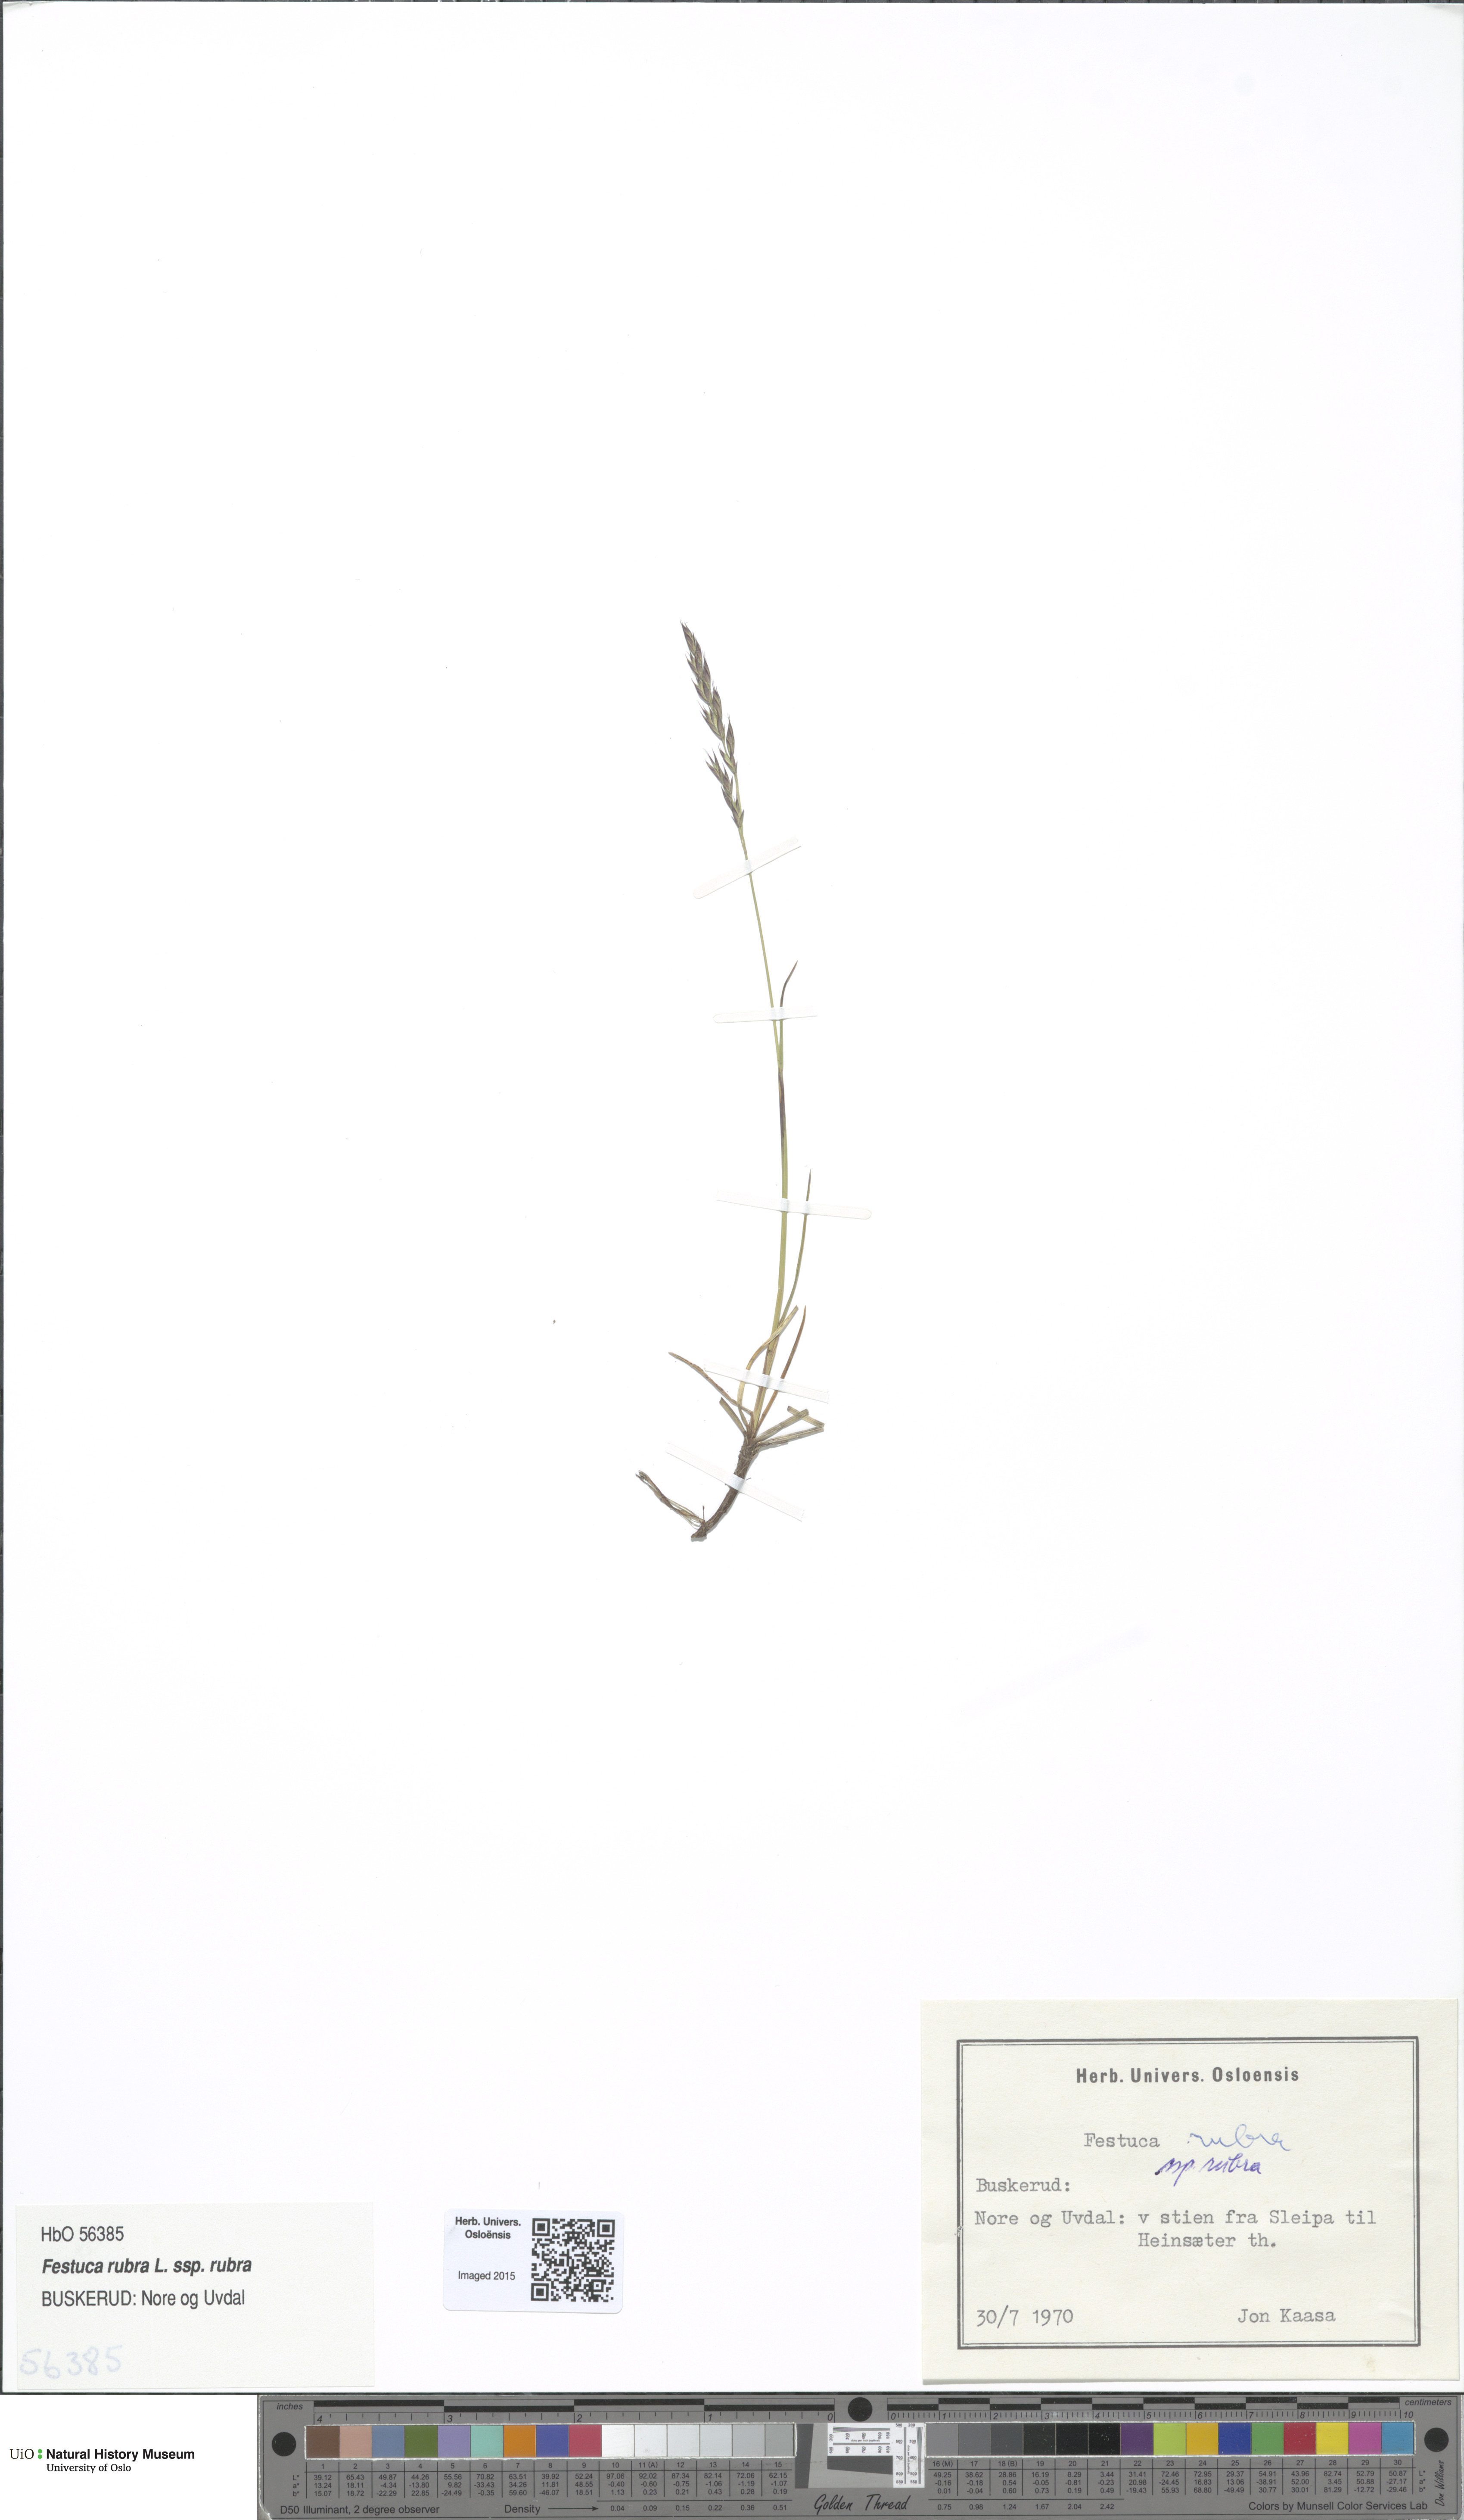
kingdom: Plantae
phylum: Tracheophyta
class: Liliopsida
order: Poales
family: Poaceae
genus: Festuca
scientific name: Festuca rubra
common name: Red fescue
